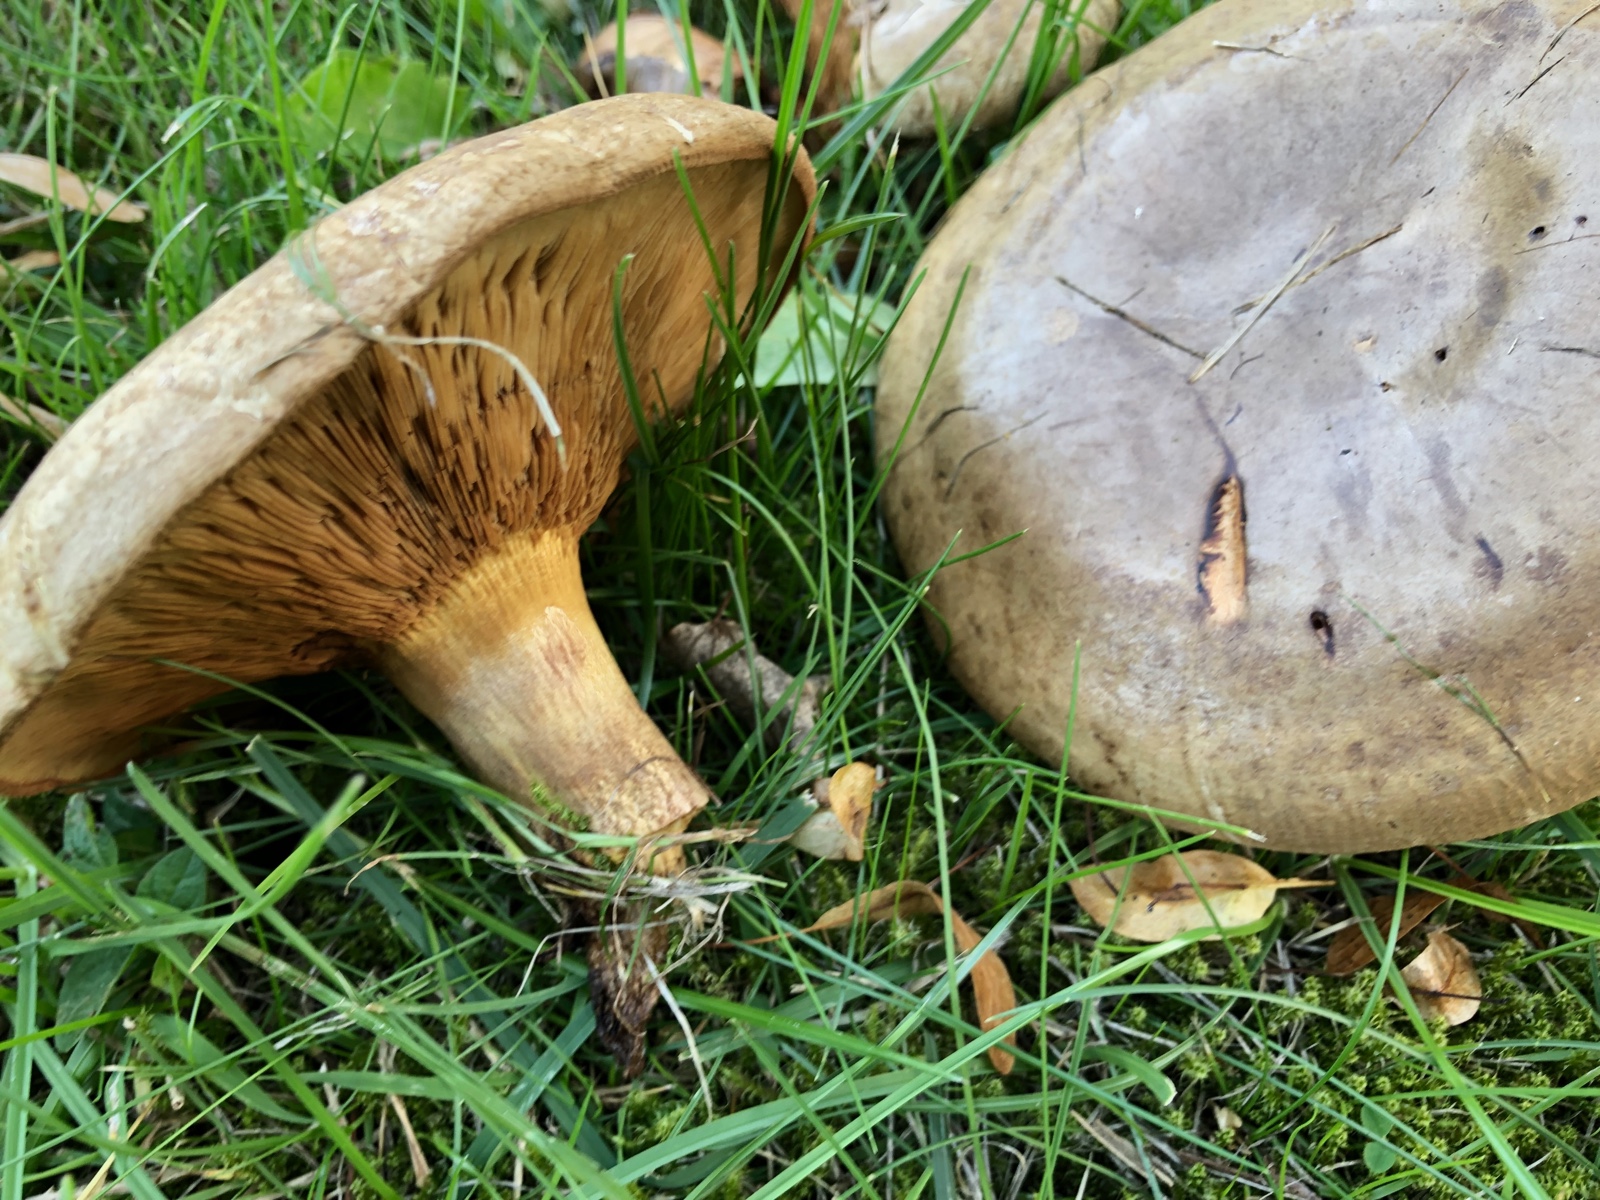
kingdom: Fungi
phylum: Basidiomycota
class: Agaricomycetes
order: Boletales
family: Paxillaceae
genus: Paxillus
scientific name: Paxillus obscurisporus
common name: mahognisporet netbladhat
